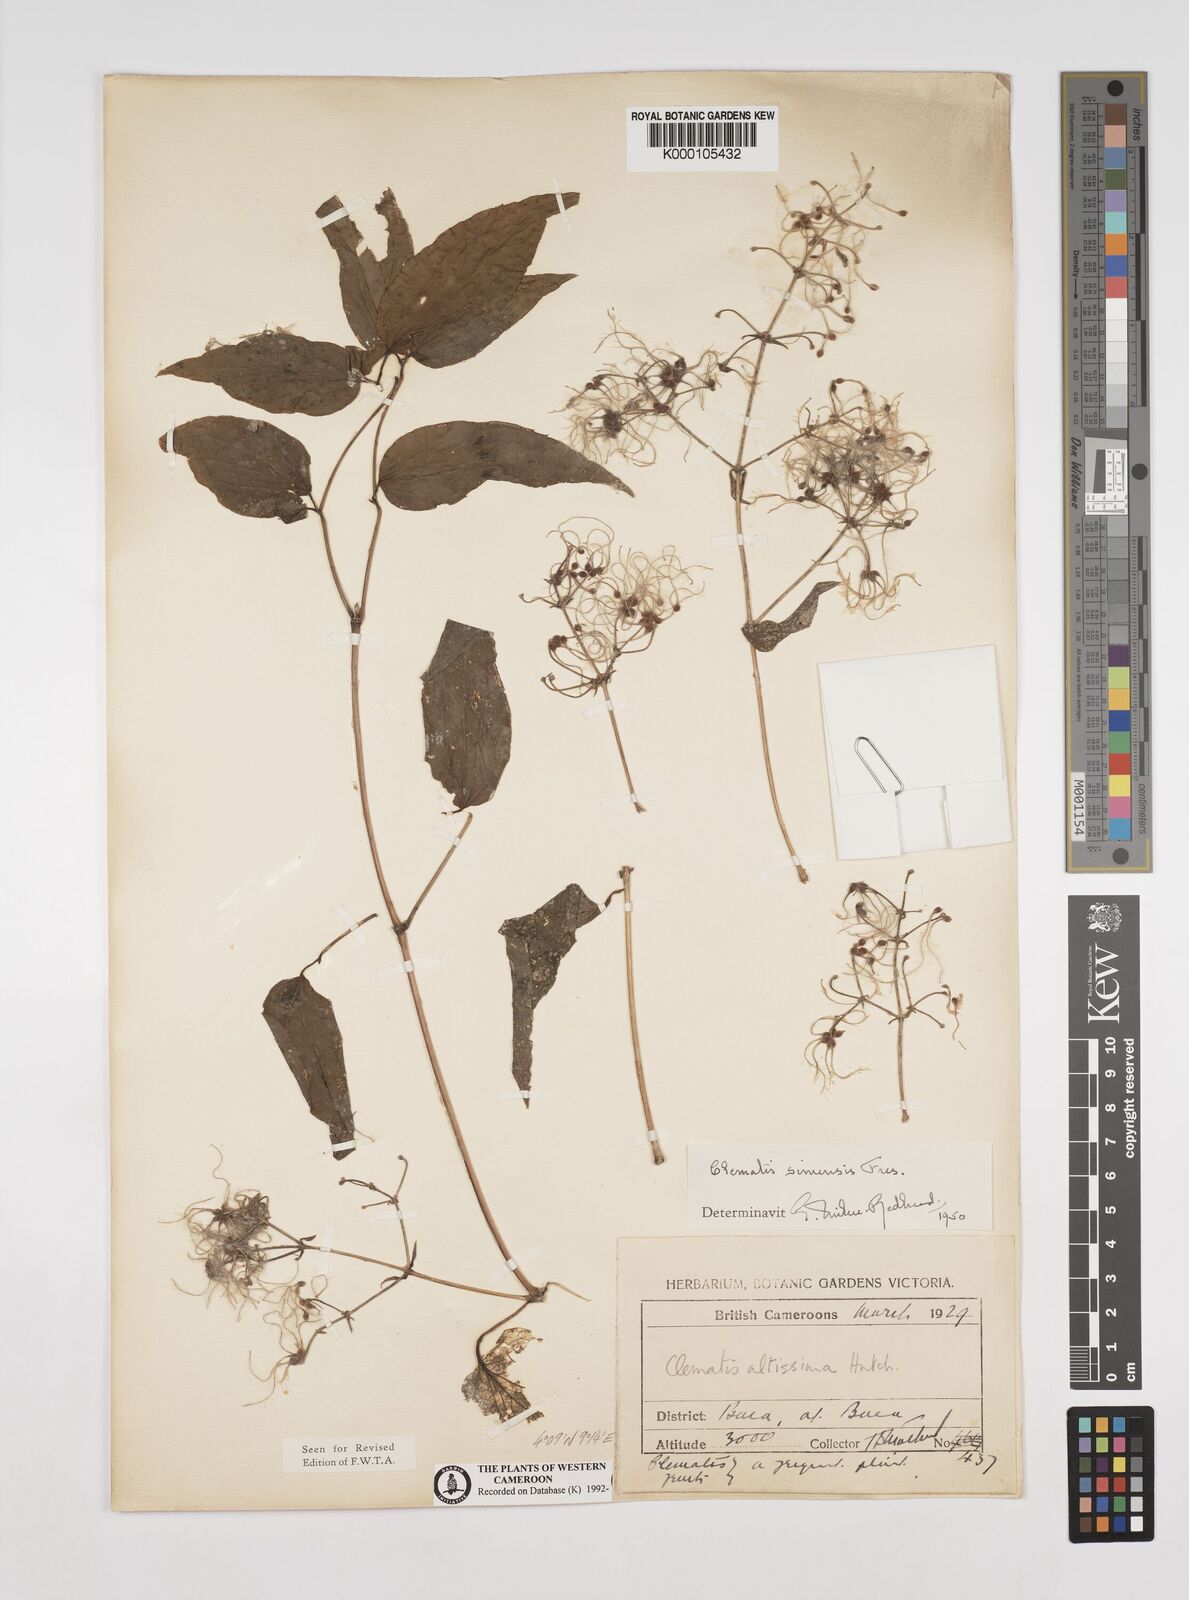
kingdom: Plantae
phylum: Tracheophyta
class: Magnoliopsida
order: Ranunculales
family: Ranunculaceae
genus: Clematis
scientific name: Clematis simensis
